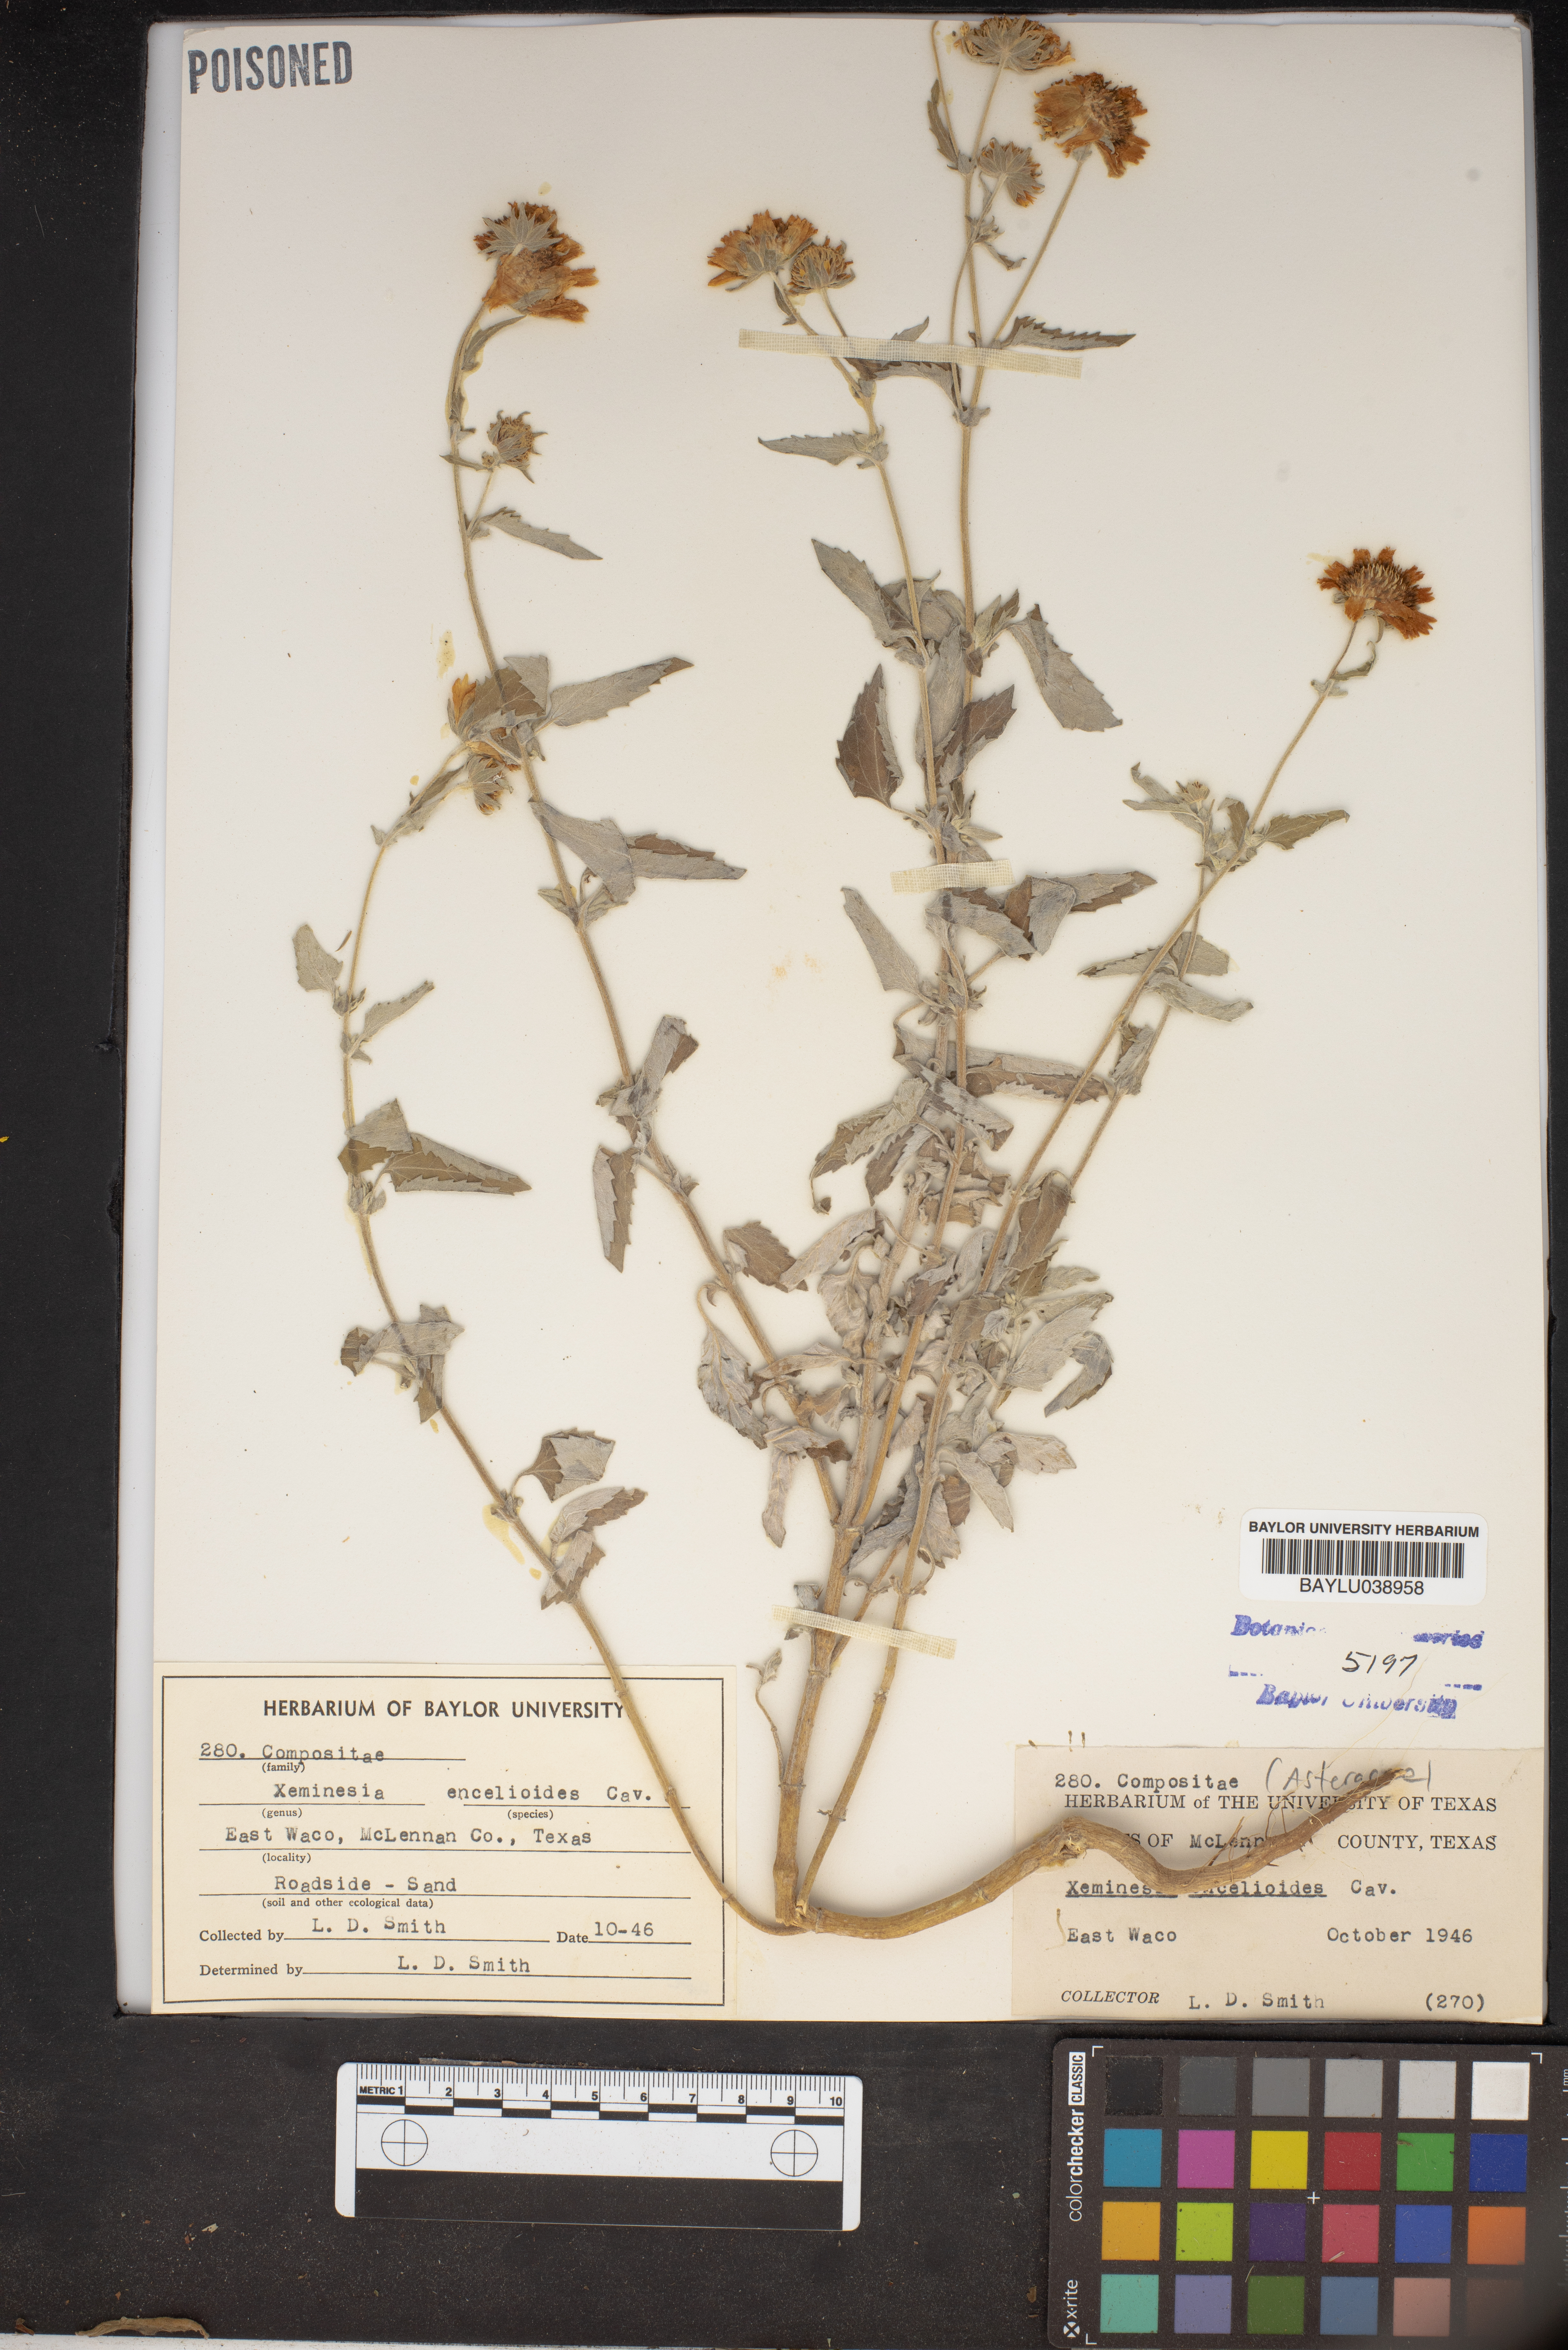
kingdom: Plantae
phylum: Tracheophyta
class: Magnoliopsida
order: Asterales
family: Asteraceae
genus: Verbesina
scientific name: Verbesina encelioides
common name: Golden crownbeard
